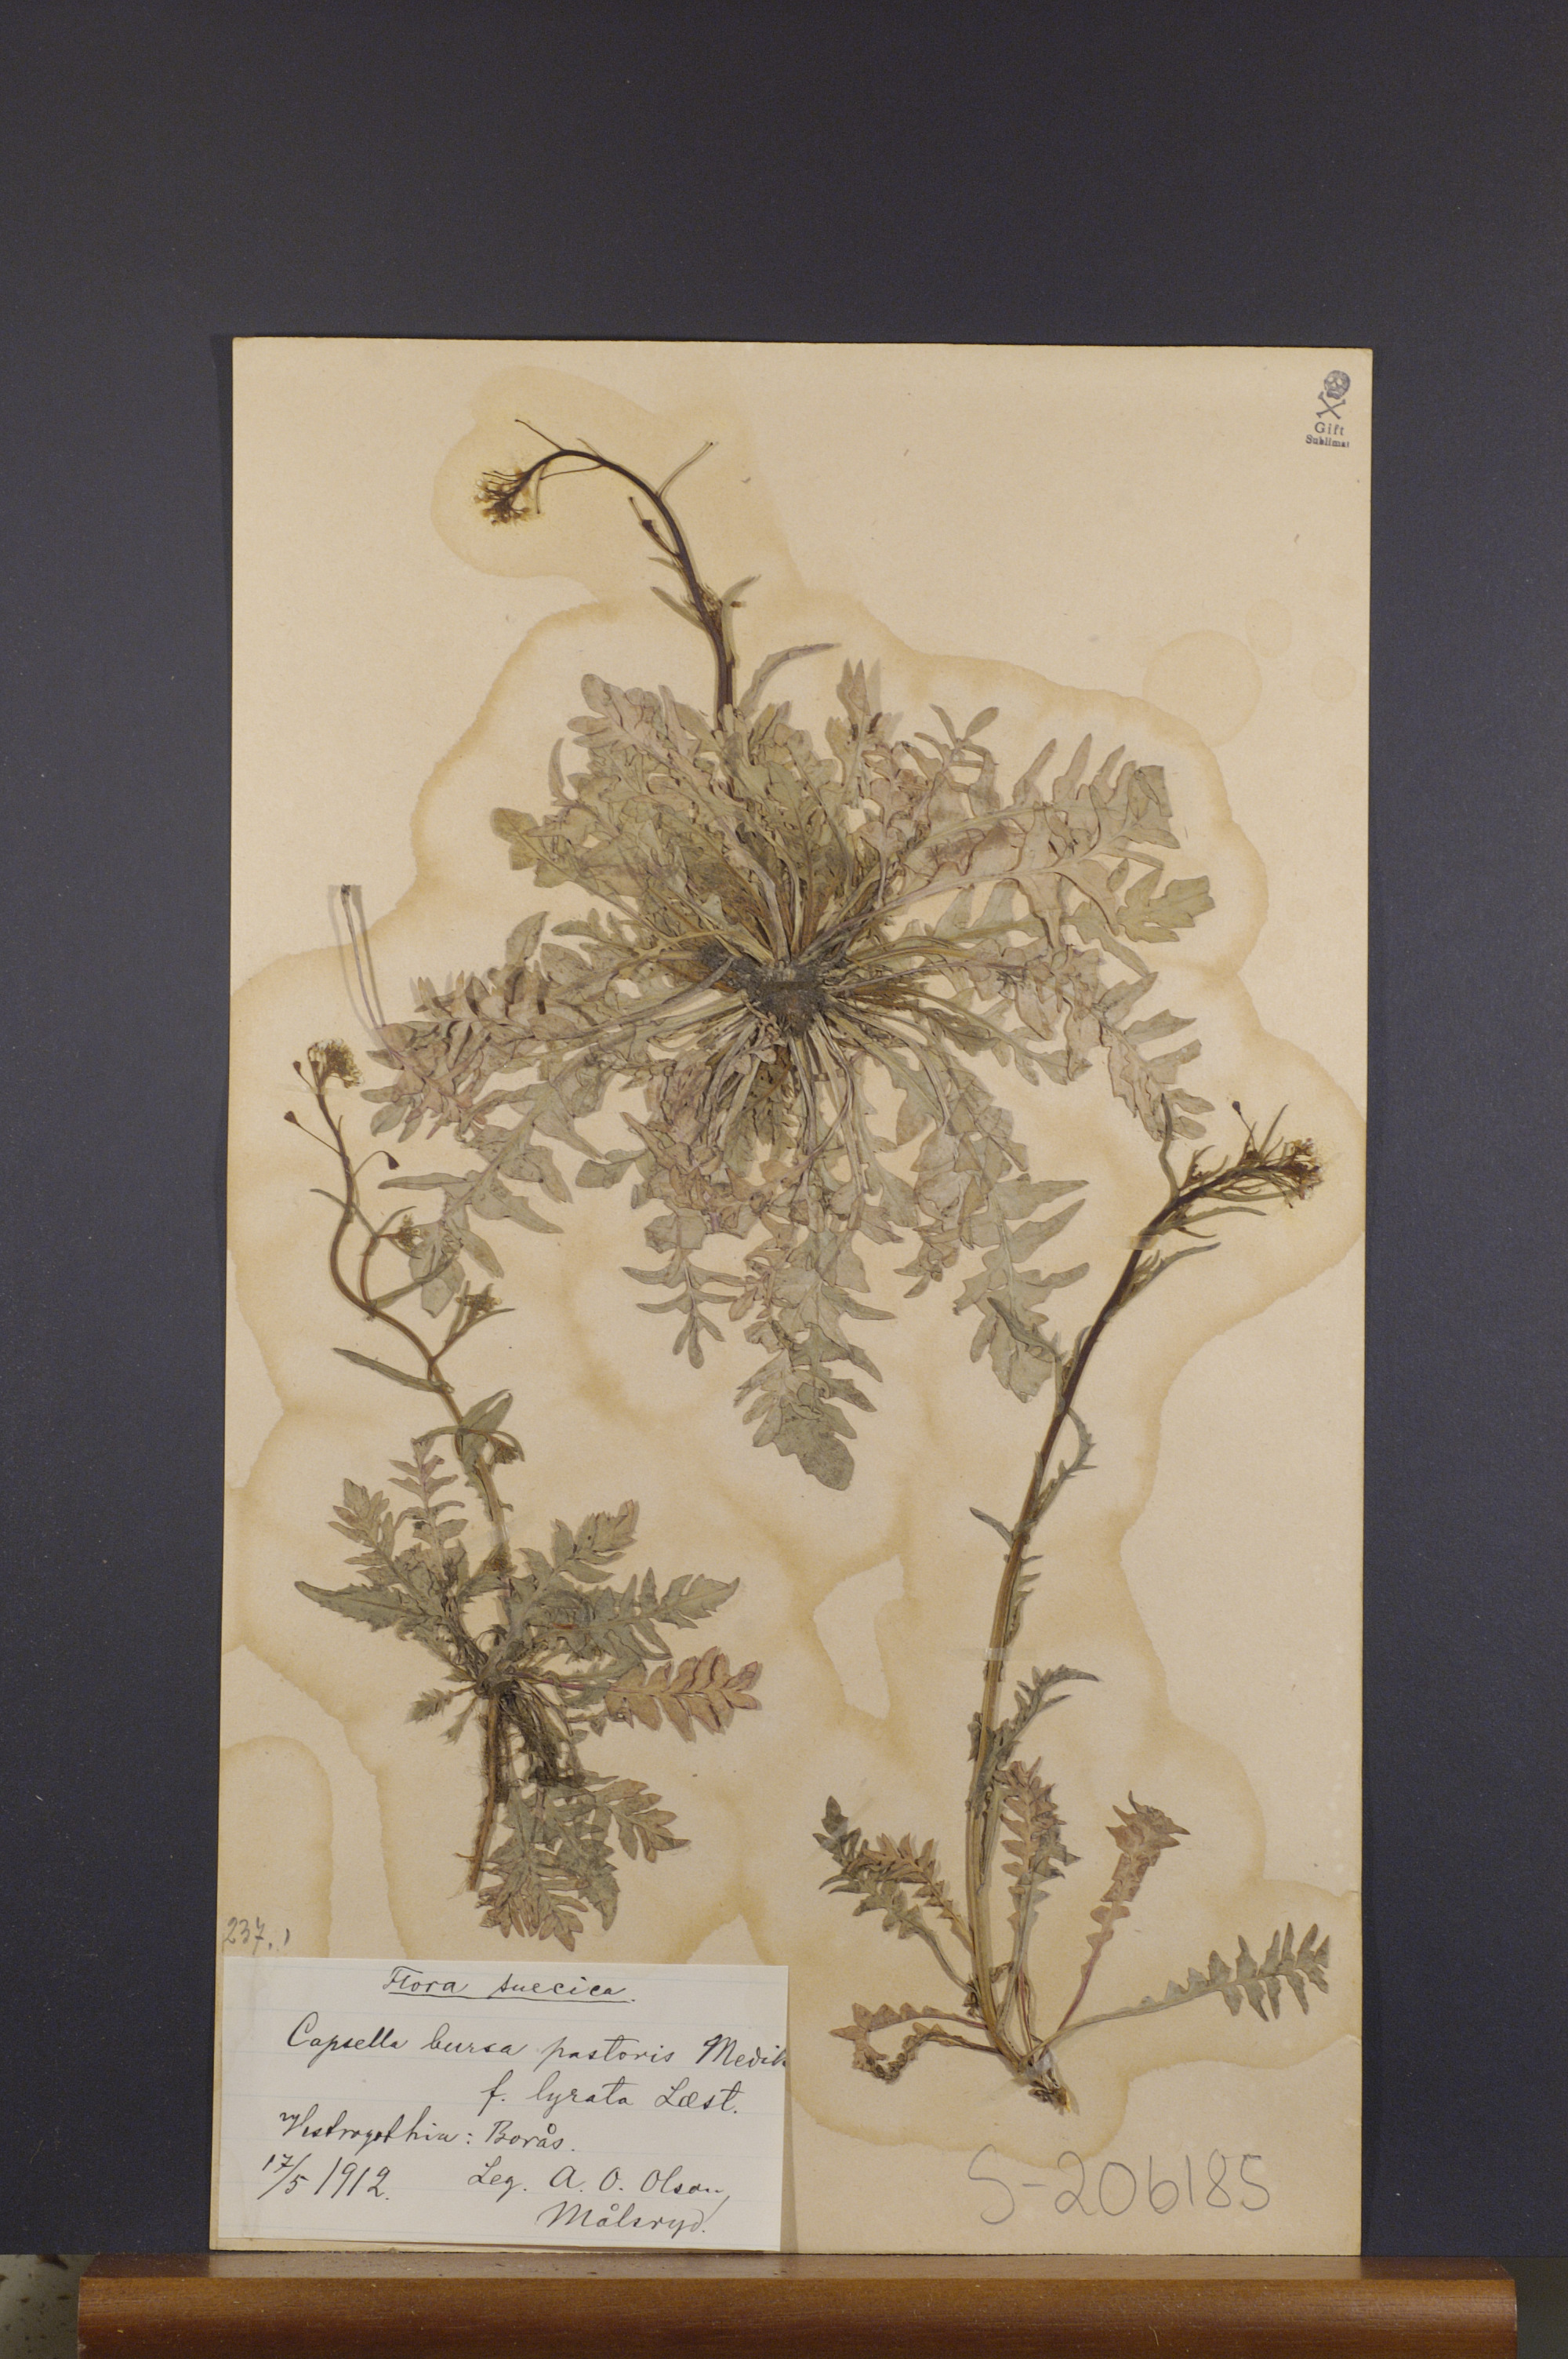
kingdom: Plantae
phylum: Tracheophyta
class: Magnoliopsida
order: Brassicales
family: Brassicaceae
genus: Capsella
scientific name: Capsella bursa-pastoris
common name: Shepherd's purse
